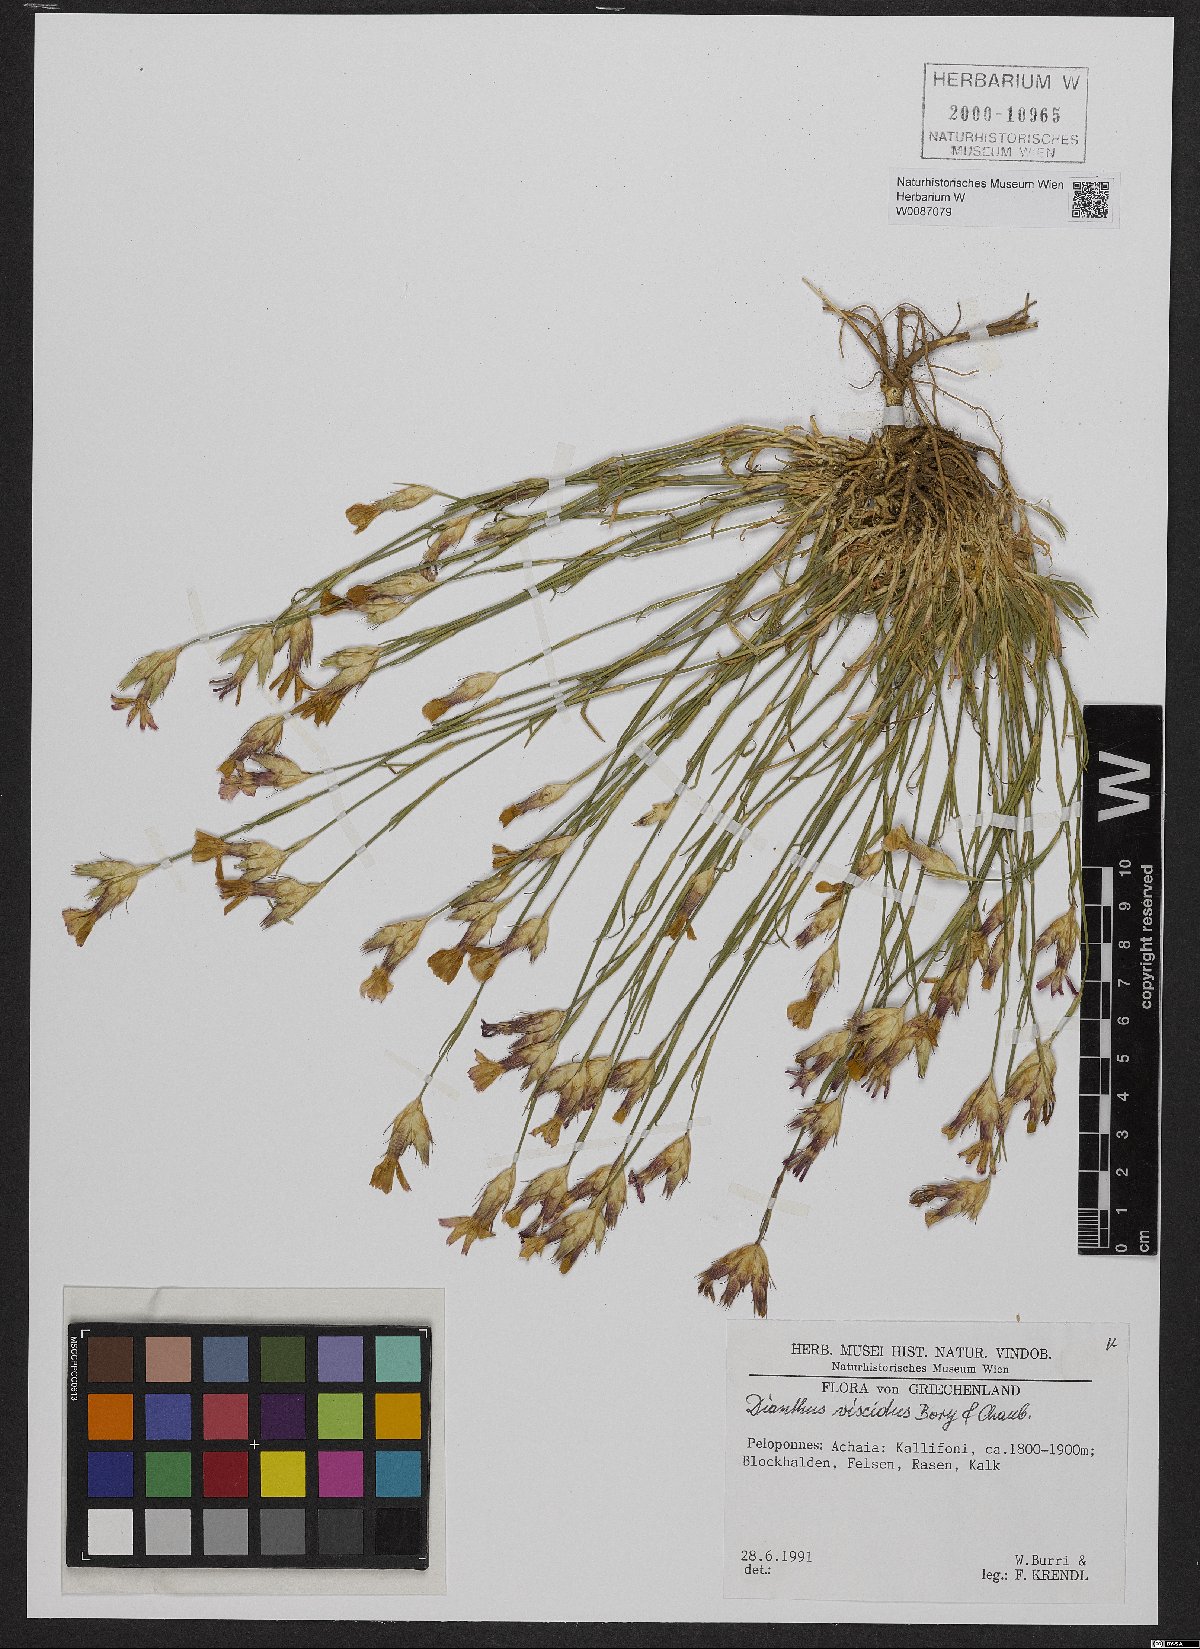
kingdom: Plantae
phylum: Tracheophyta
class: Magnoliopsida
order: Caryophyllales
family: Caryophyllaceae
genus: Dianthus
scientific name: Dianthus viscidus
